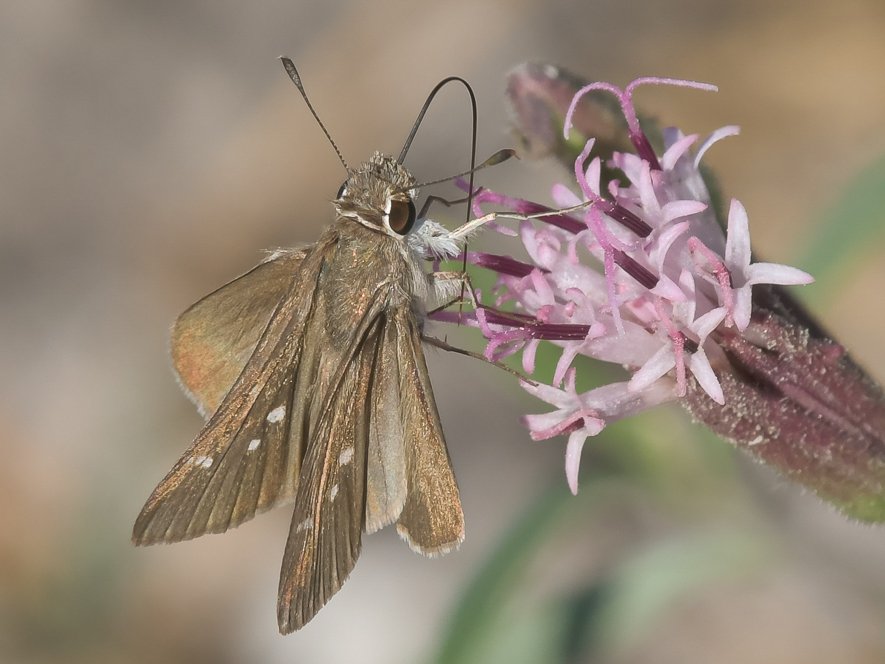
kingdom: Animalia
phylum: Arthropoda
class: Insecta
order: Lepidoptera
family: Hesperiidae
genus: Lerodea
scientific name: Lerodea eufala
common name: Eufala Skipper
